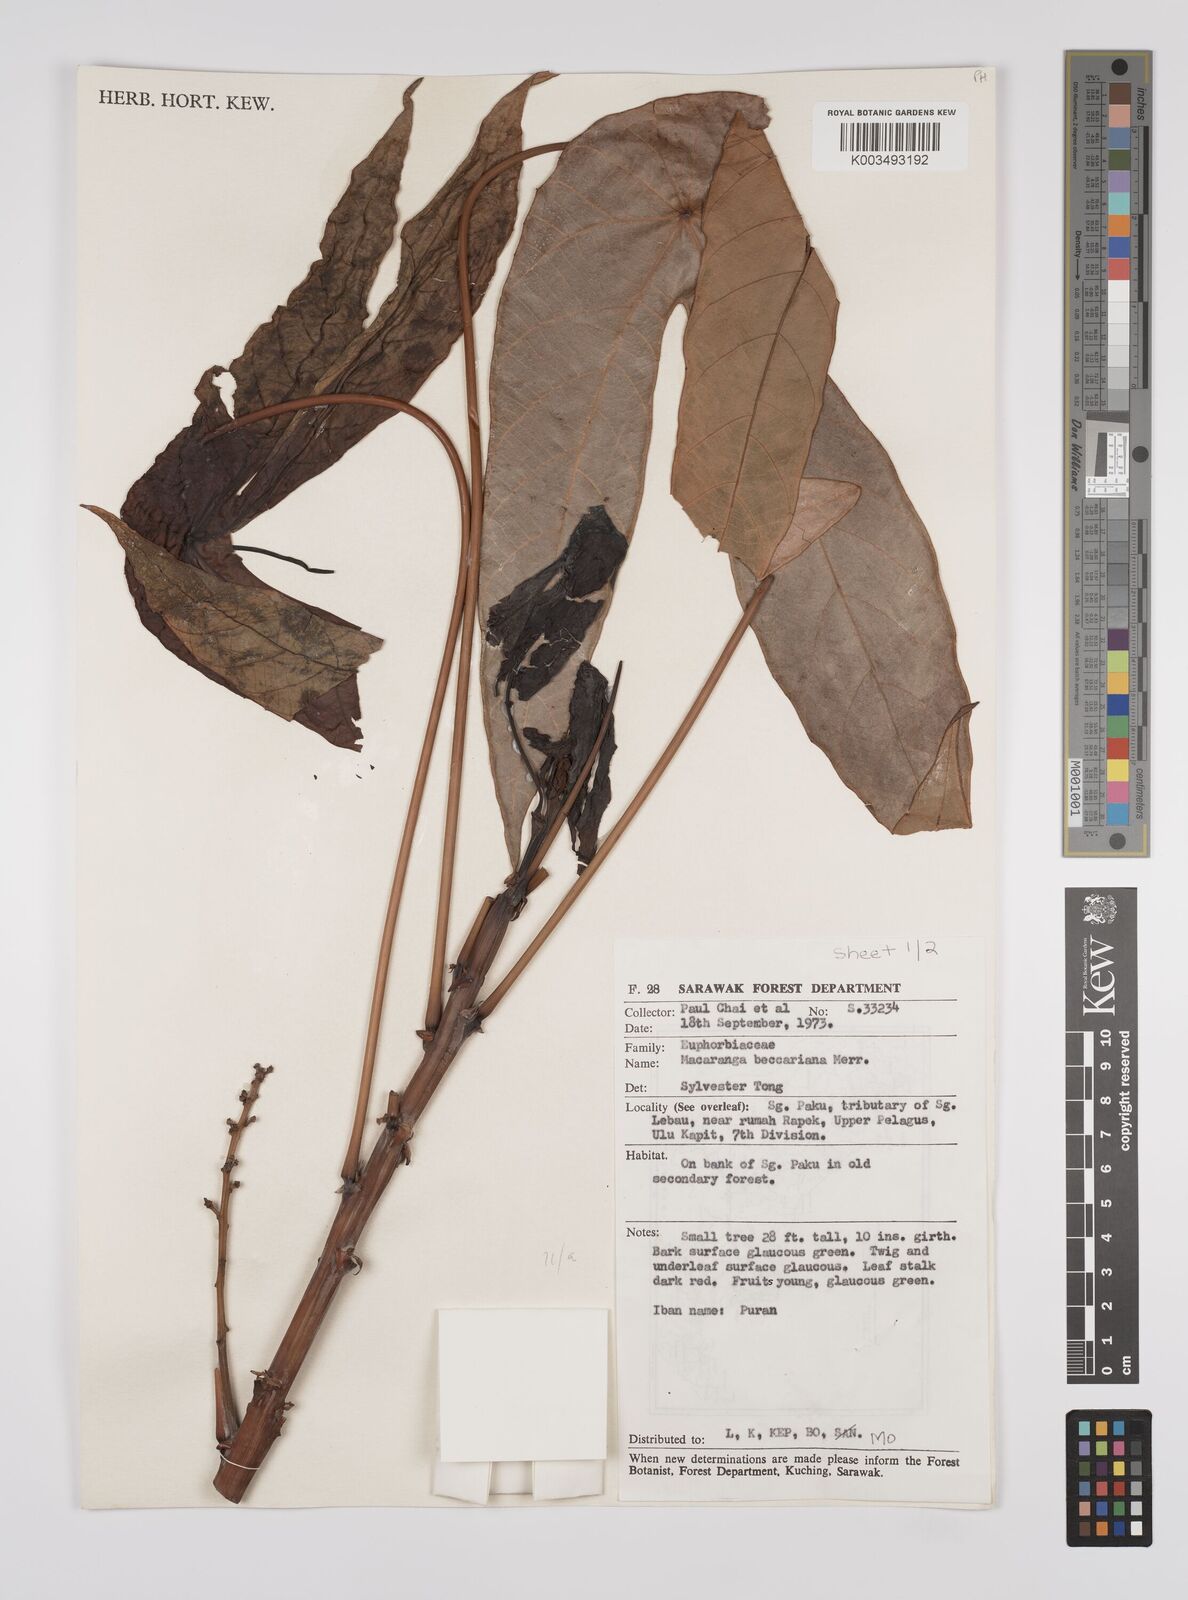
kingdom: Plantae
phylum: Tracheophyta
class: Magnoliopsida
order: Malpighiales
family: Euphorbiaceae
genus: Macaranga
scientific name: Macaranga beccariana
